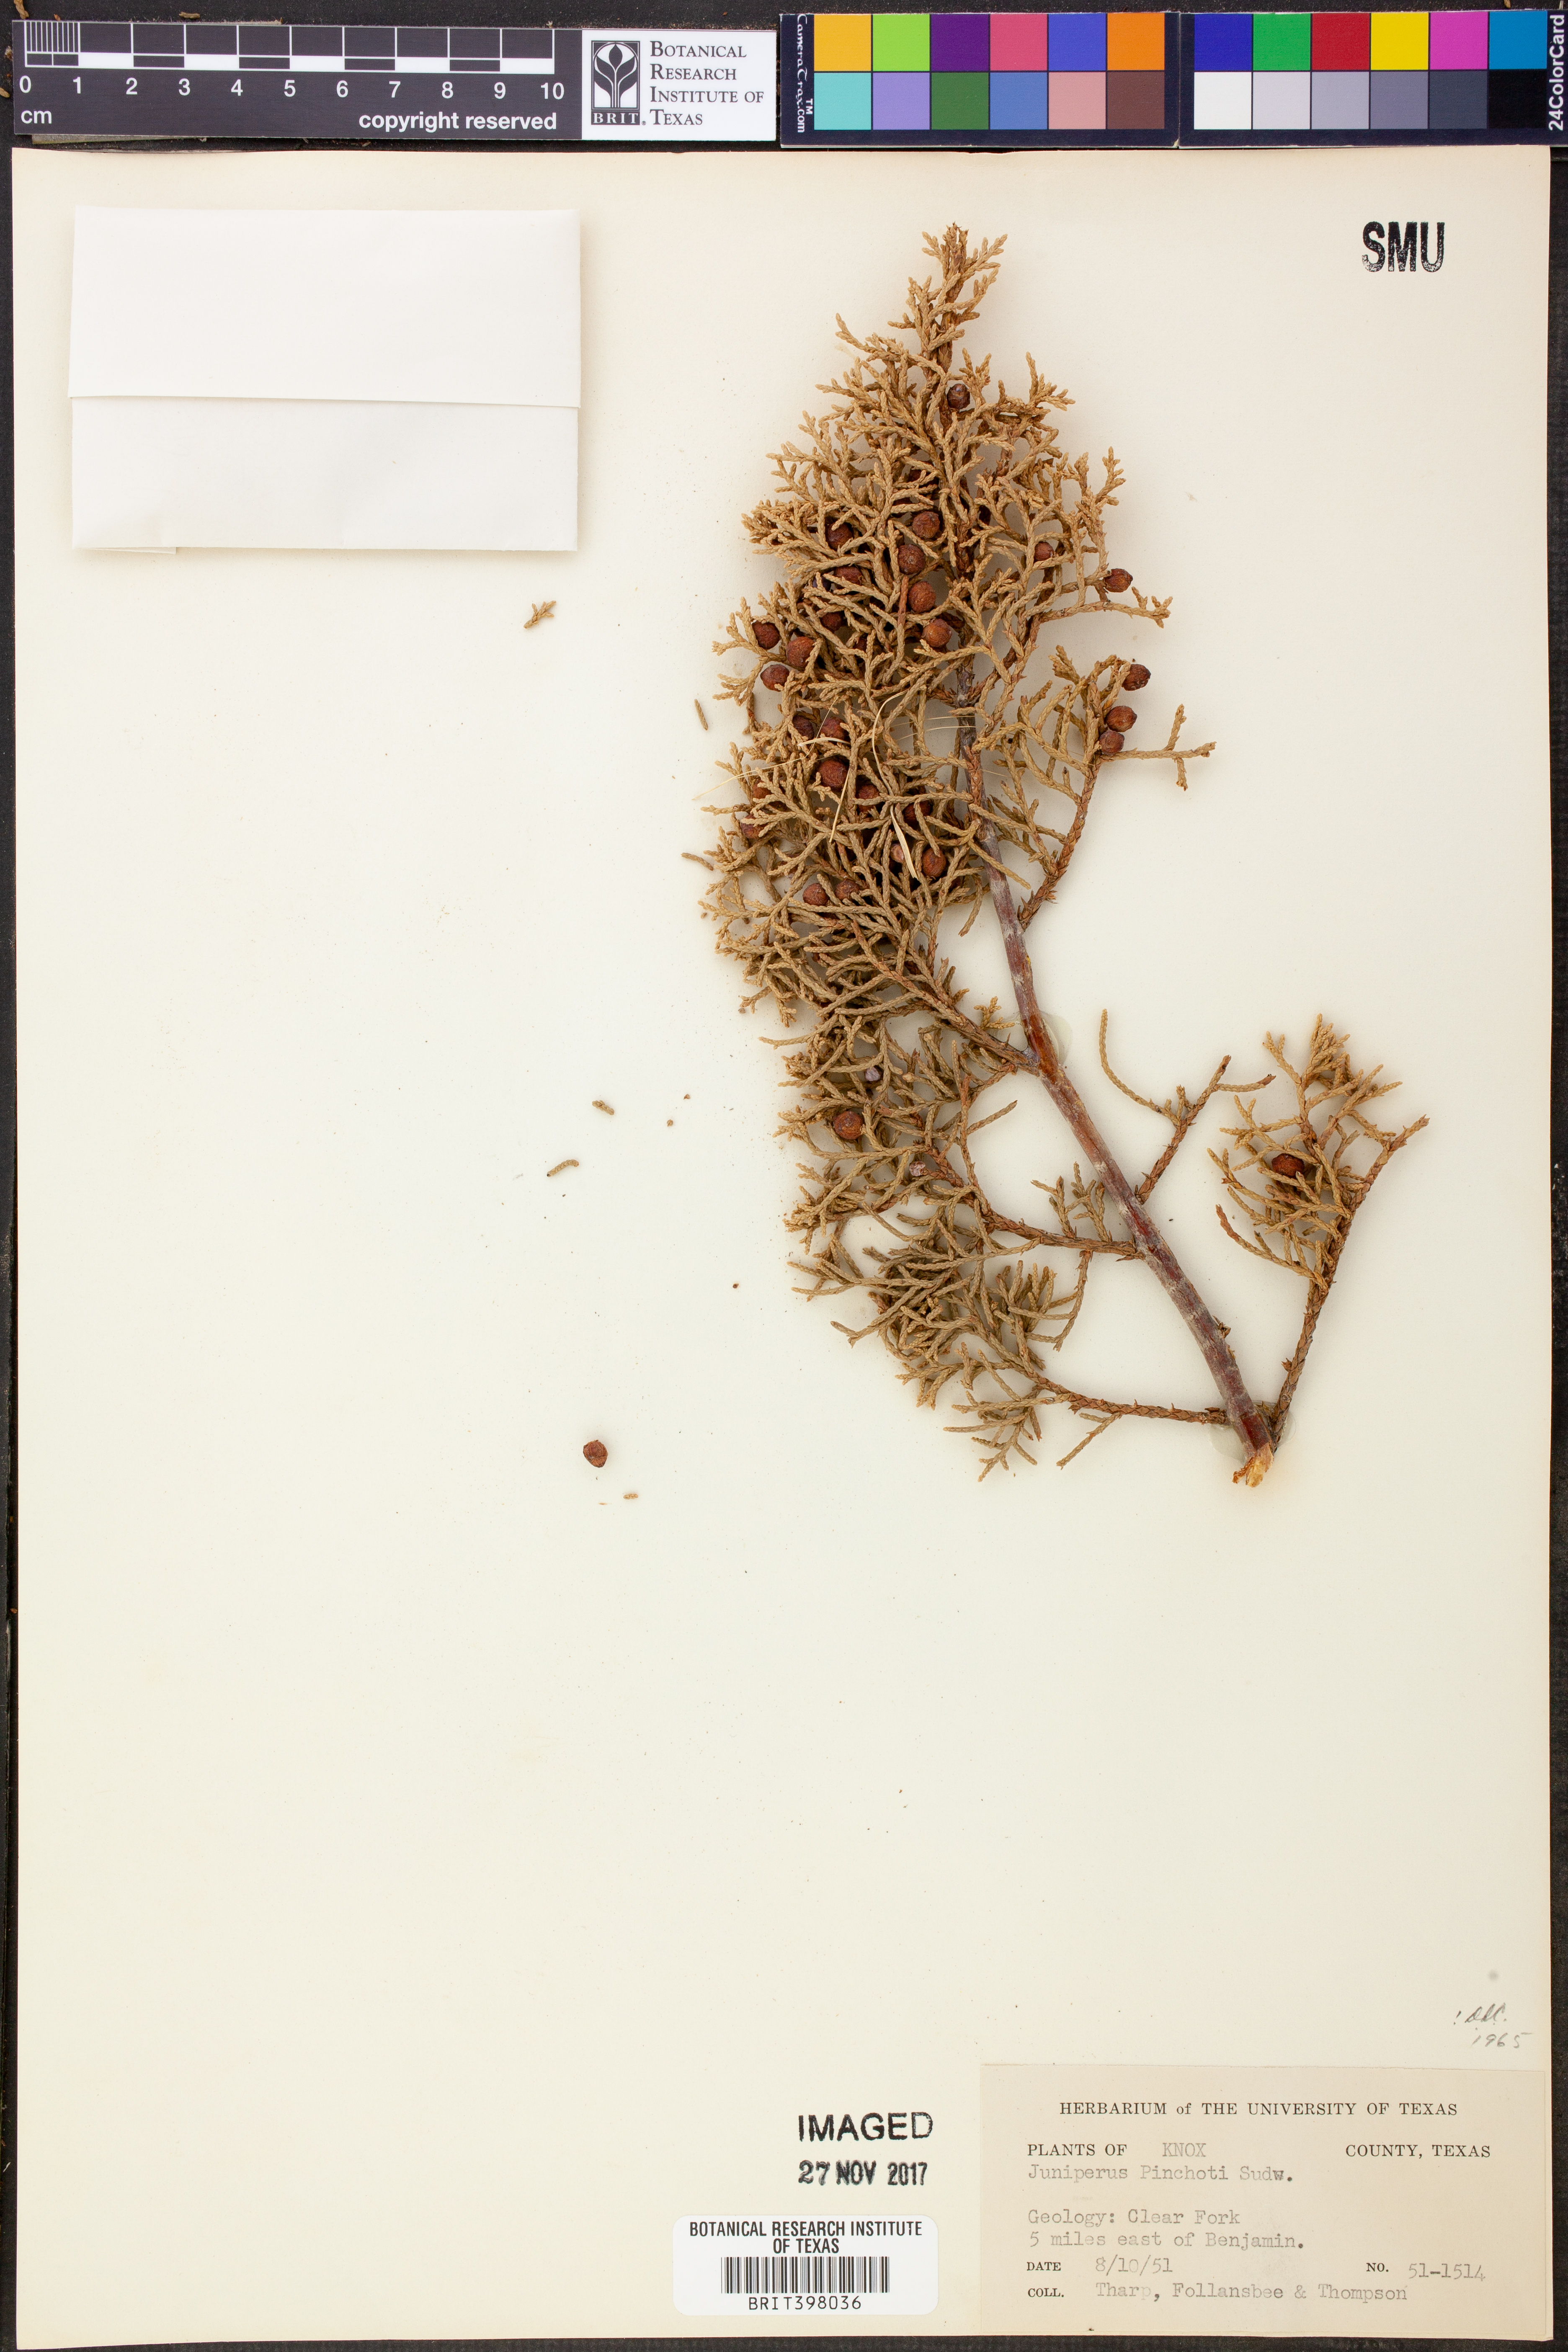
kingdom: Plantae
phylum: Tracheophyta
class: Pinopsida
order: Pinales
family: Cupressaceae
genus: Juniperus
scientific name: Juniperus pinchotii
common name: Pinchot juniper
